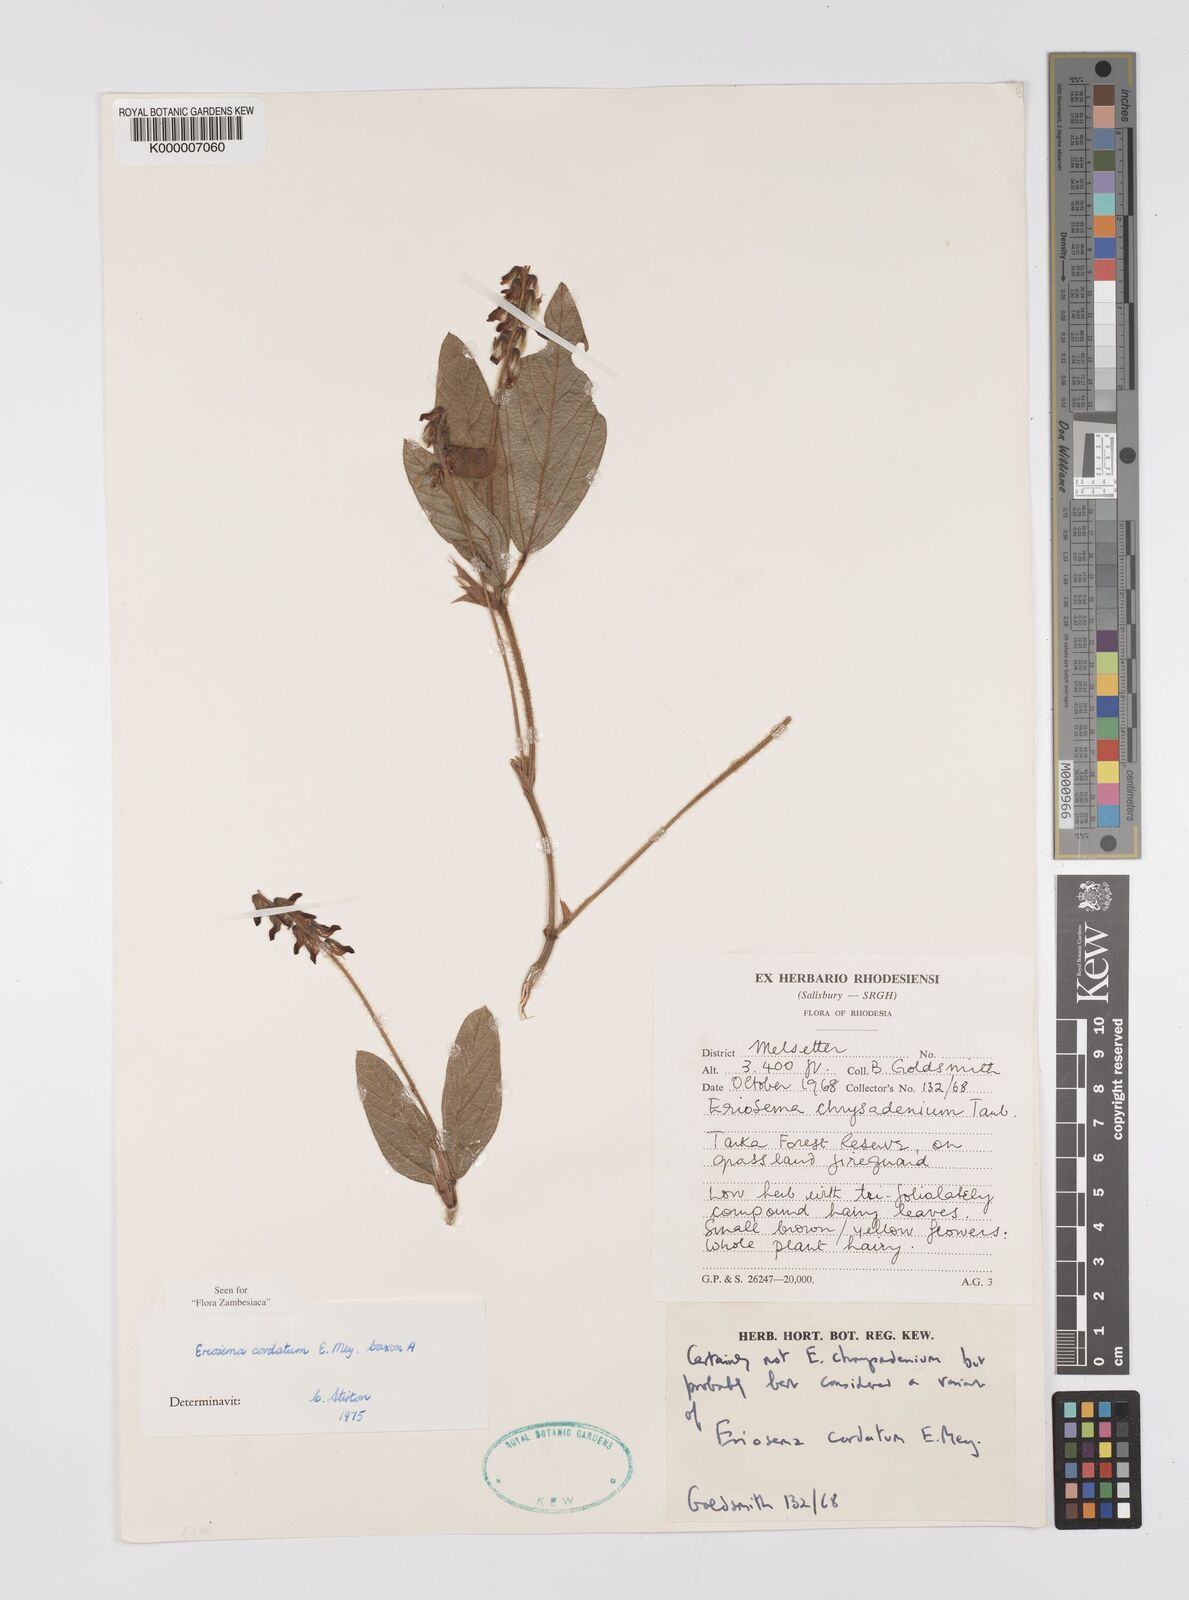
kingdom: Plantae
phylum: Tracheophyta
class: Magnoliopsida
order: Fabales
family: Fabaceae
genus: Eriosema
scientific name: Eriosema cordatum
